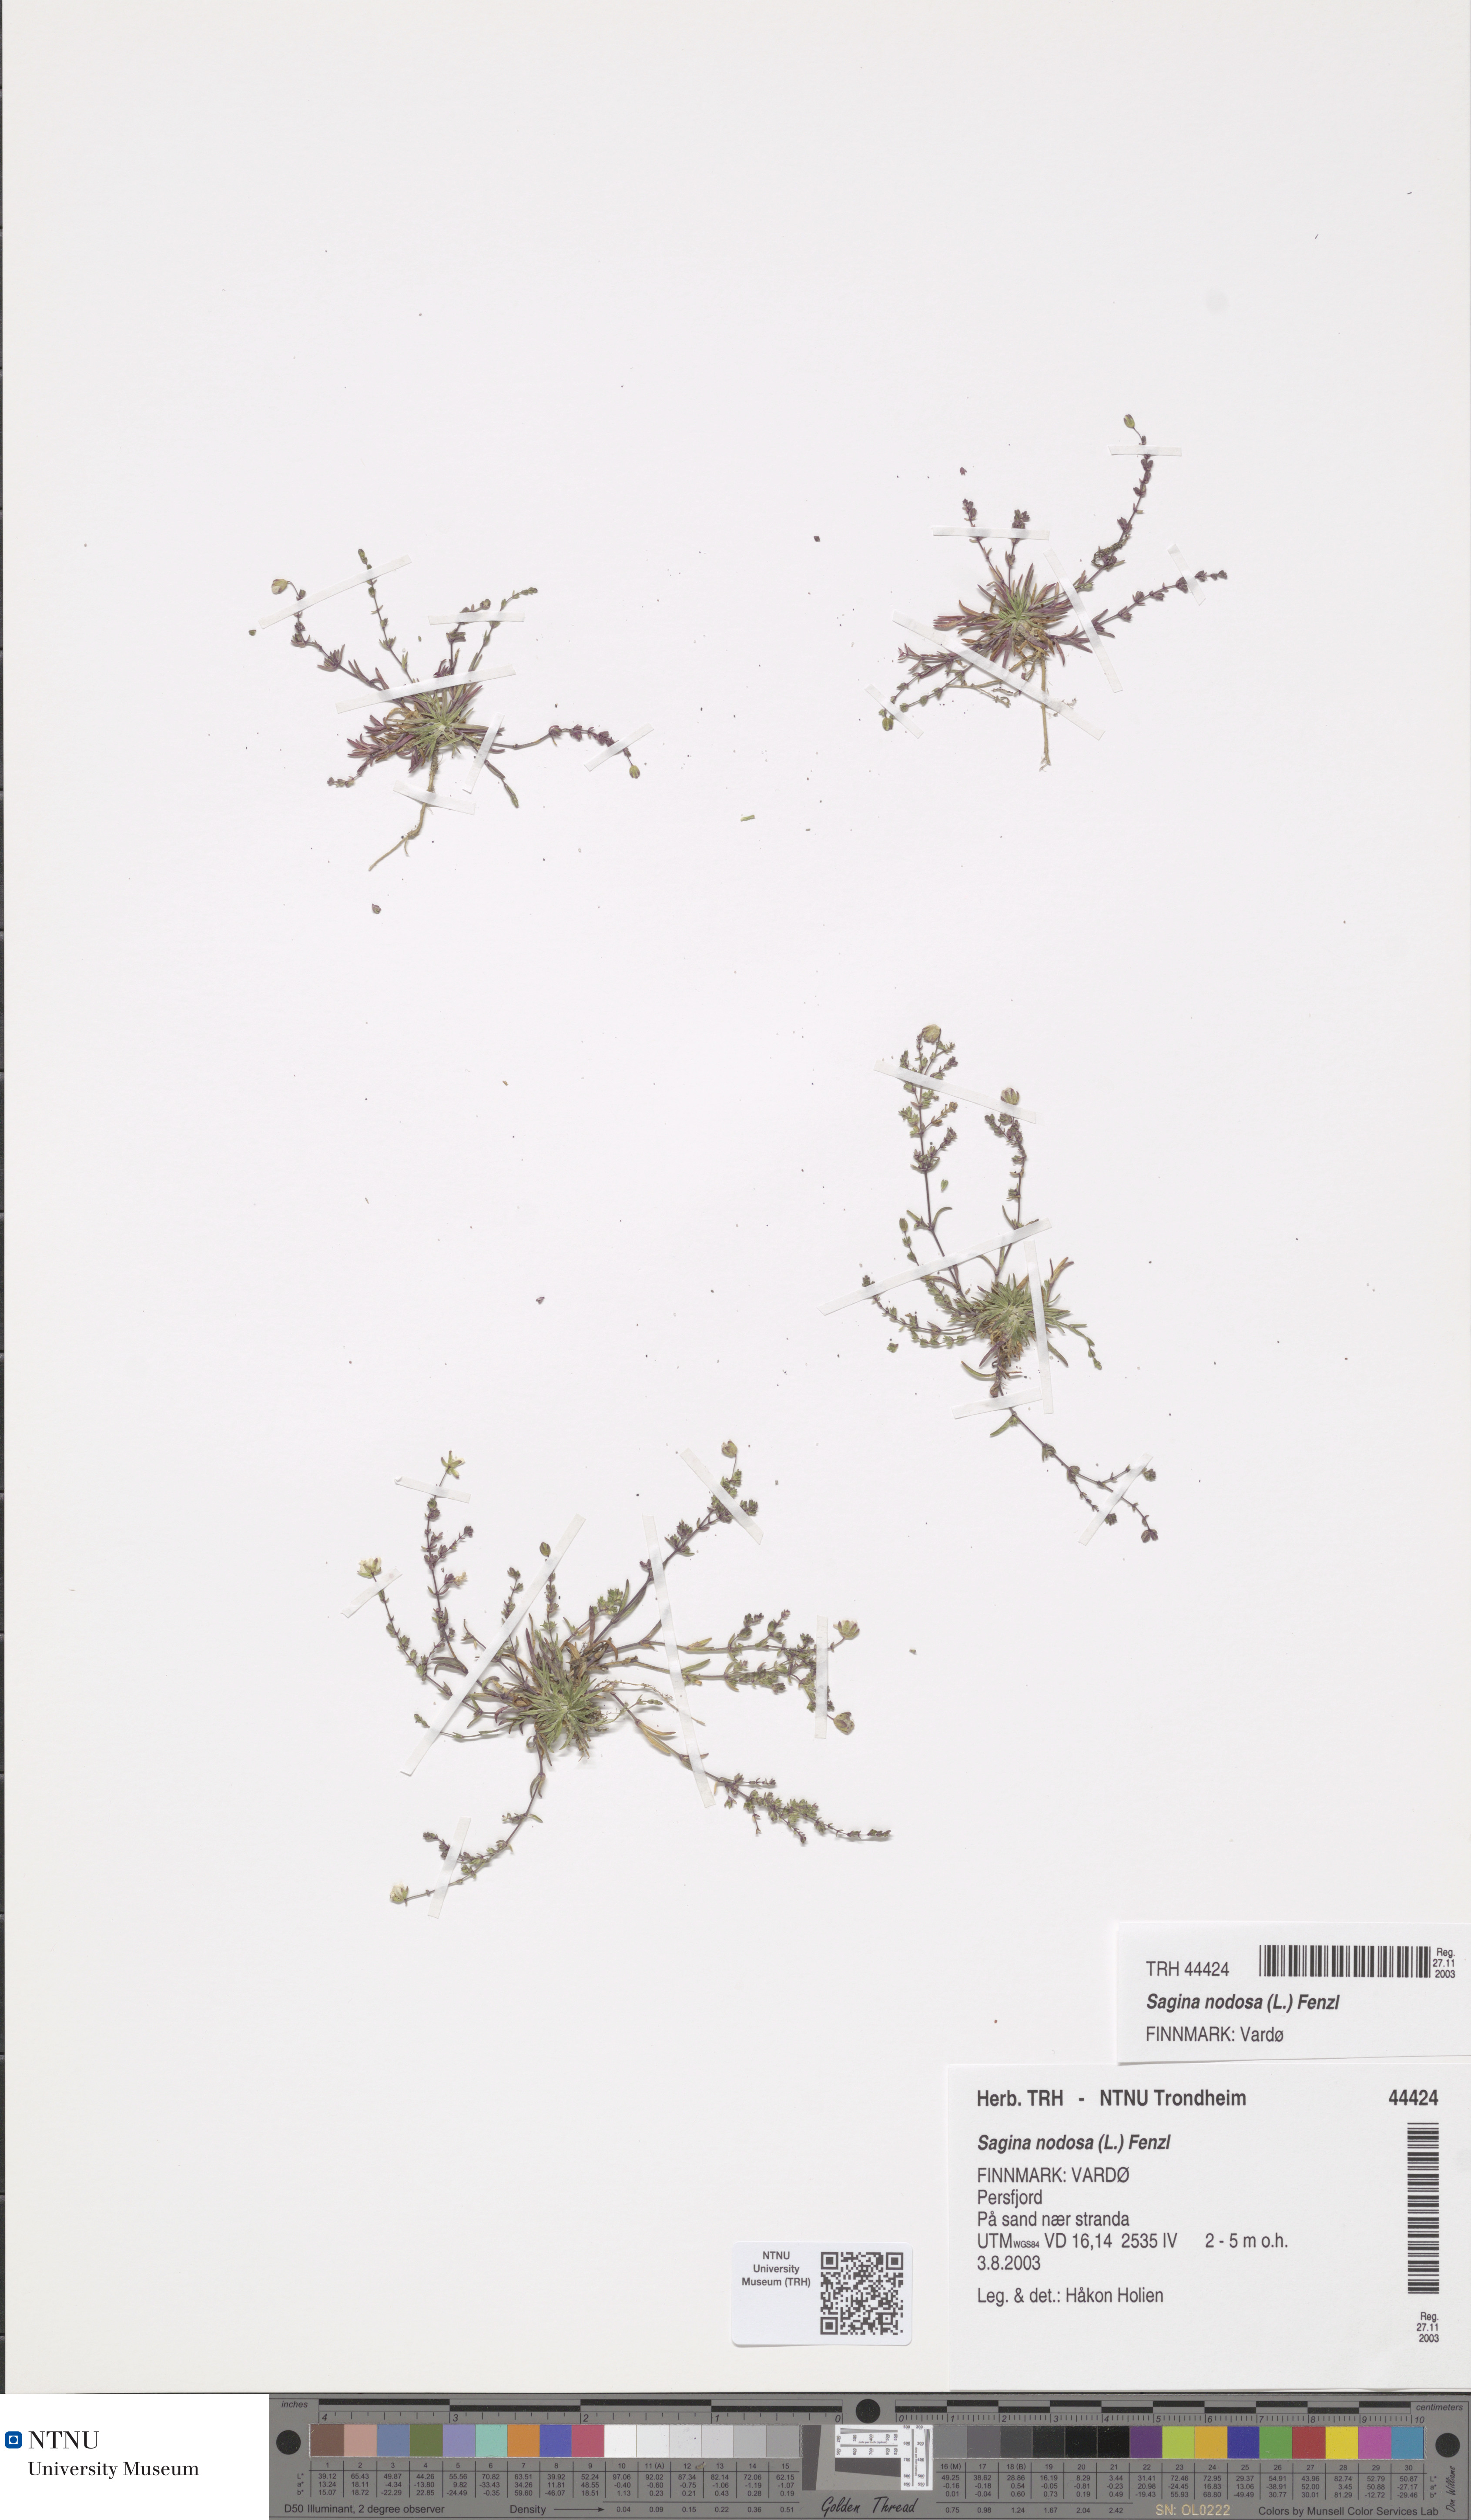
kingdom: Plantae
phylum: Tracheophyta
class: Magnoliopsida
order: Caryophyllales
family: Caryophyllaceae
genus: Sagina
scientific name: Sagina nodosa
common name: Knotted pearlwort
